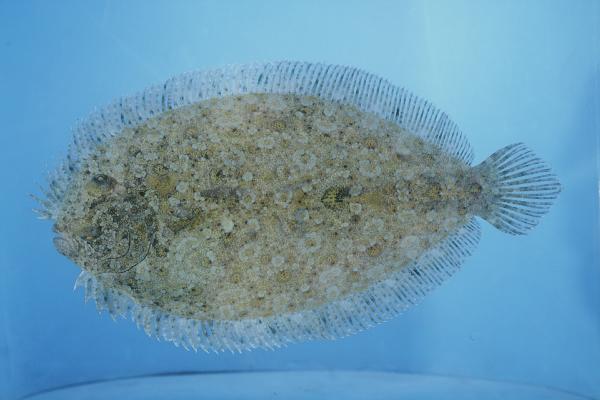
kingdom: Animalia
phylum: Chordata
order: Pleuronectiformes
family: Bothidae
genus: Bothus
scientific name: Bothus pantherinus
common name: Leopard flounder
